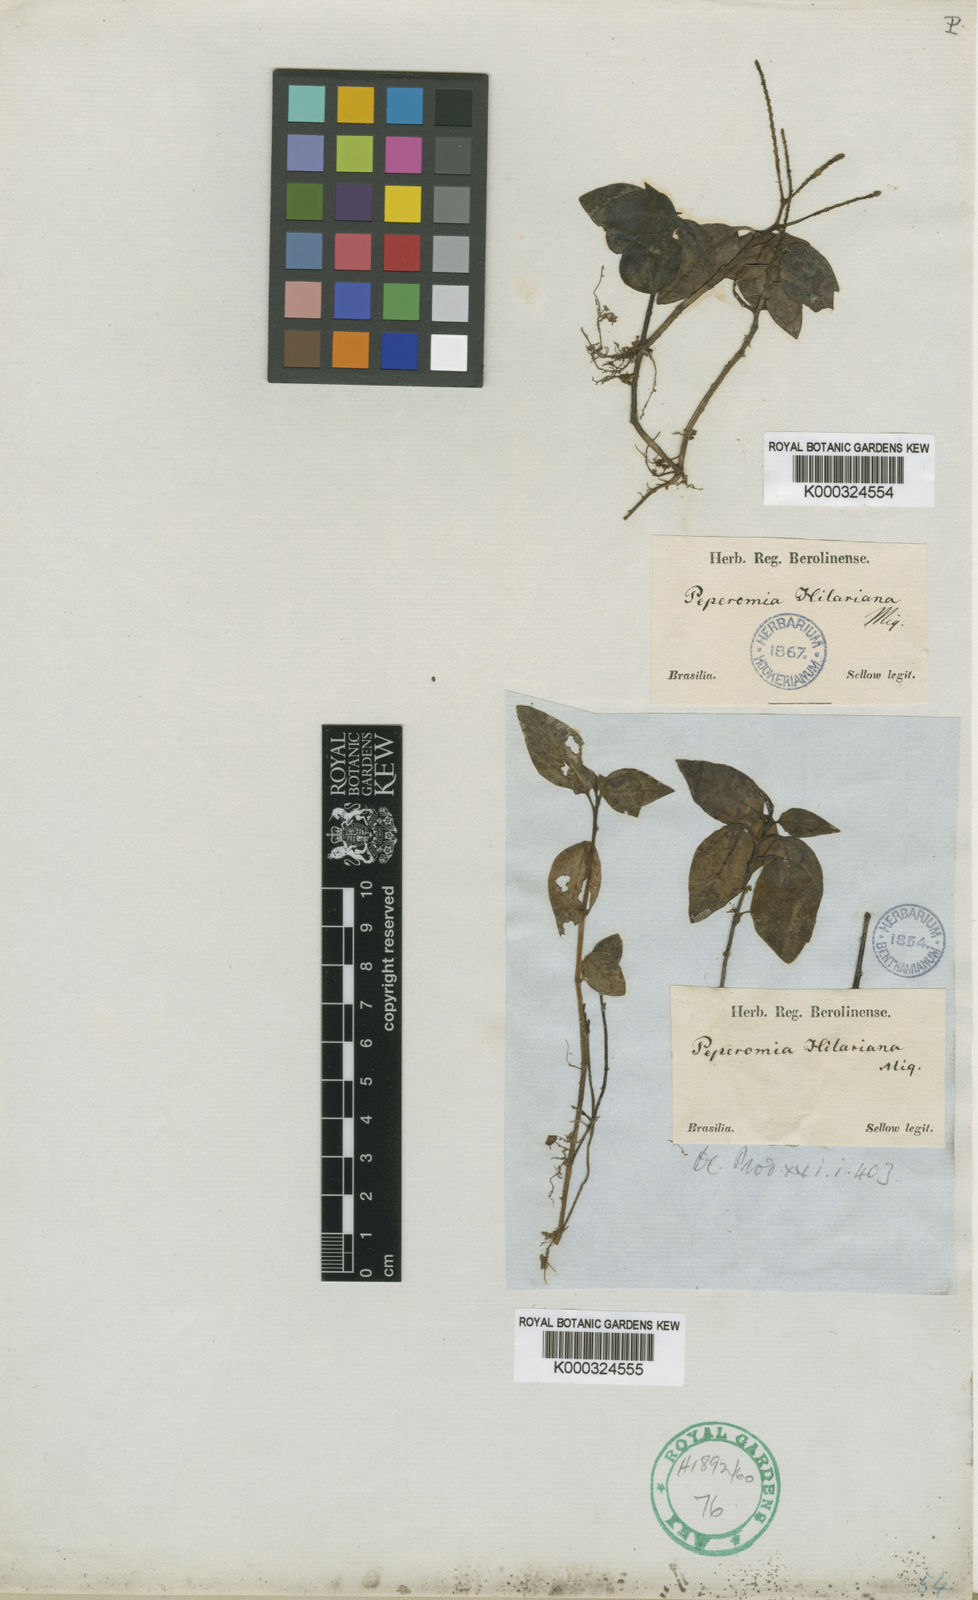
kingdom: Plantae
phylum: Tracheophyta
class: Magnoliopsida
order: Piperales
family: Piperaceae
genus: Peperomia
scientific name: Peperomia hilariana
